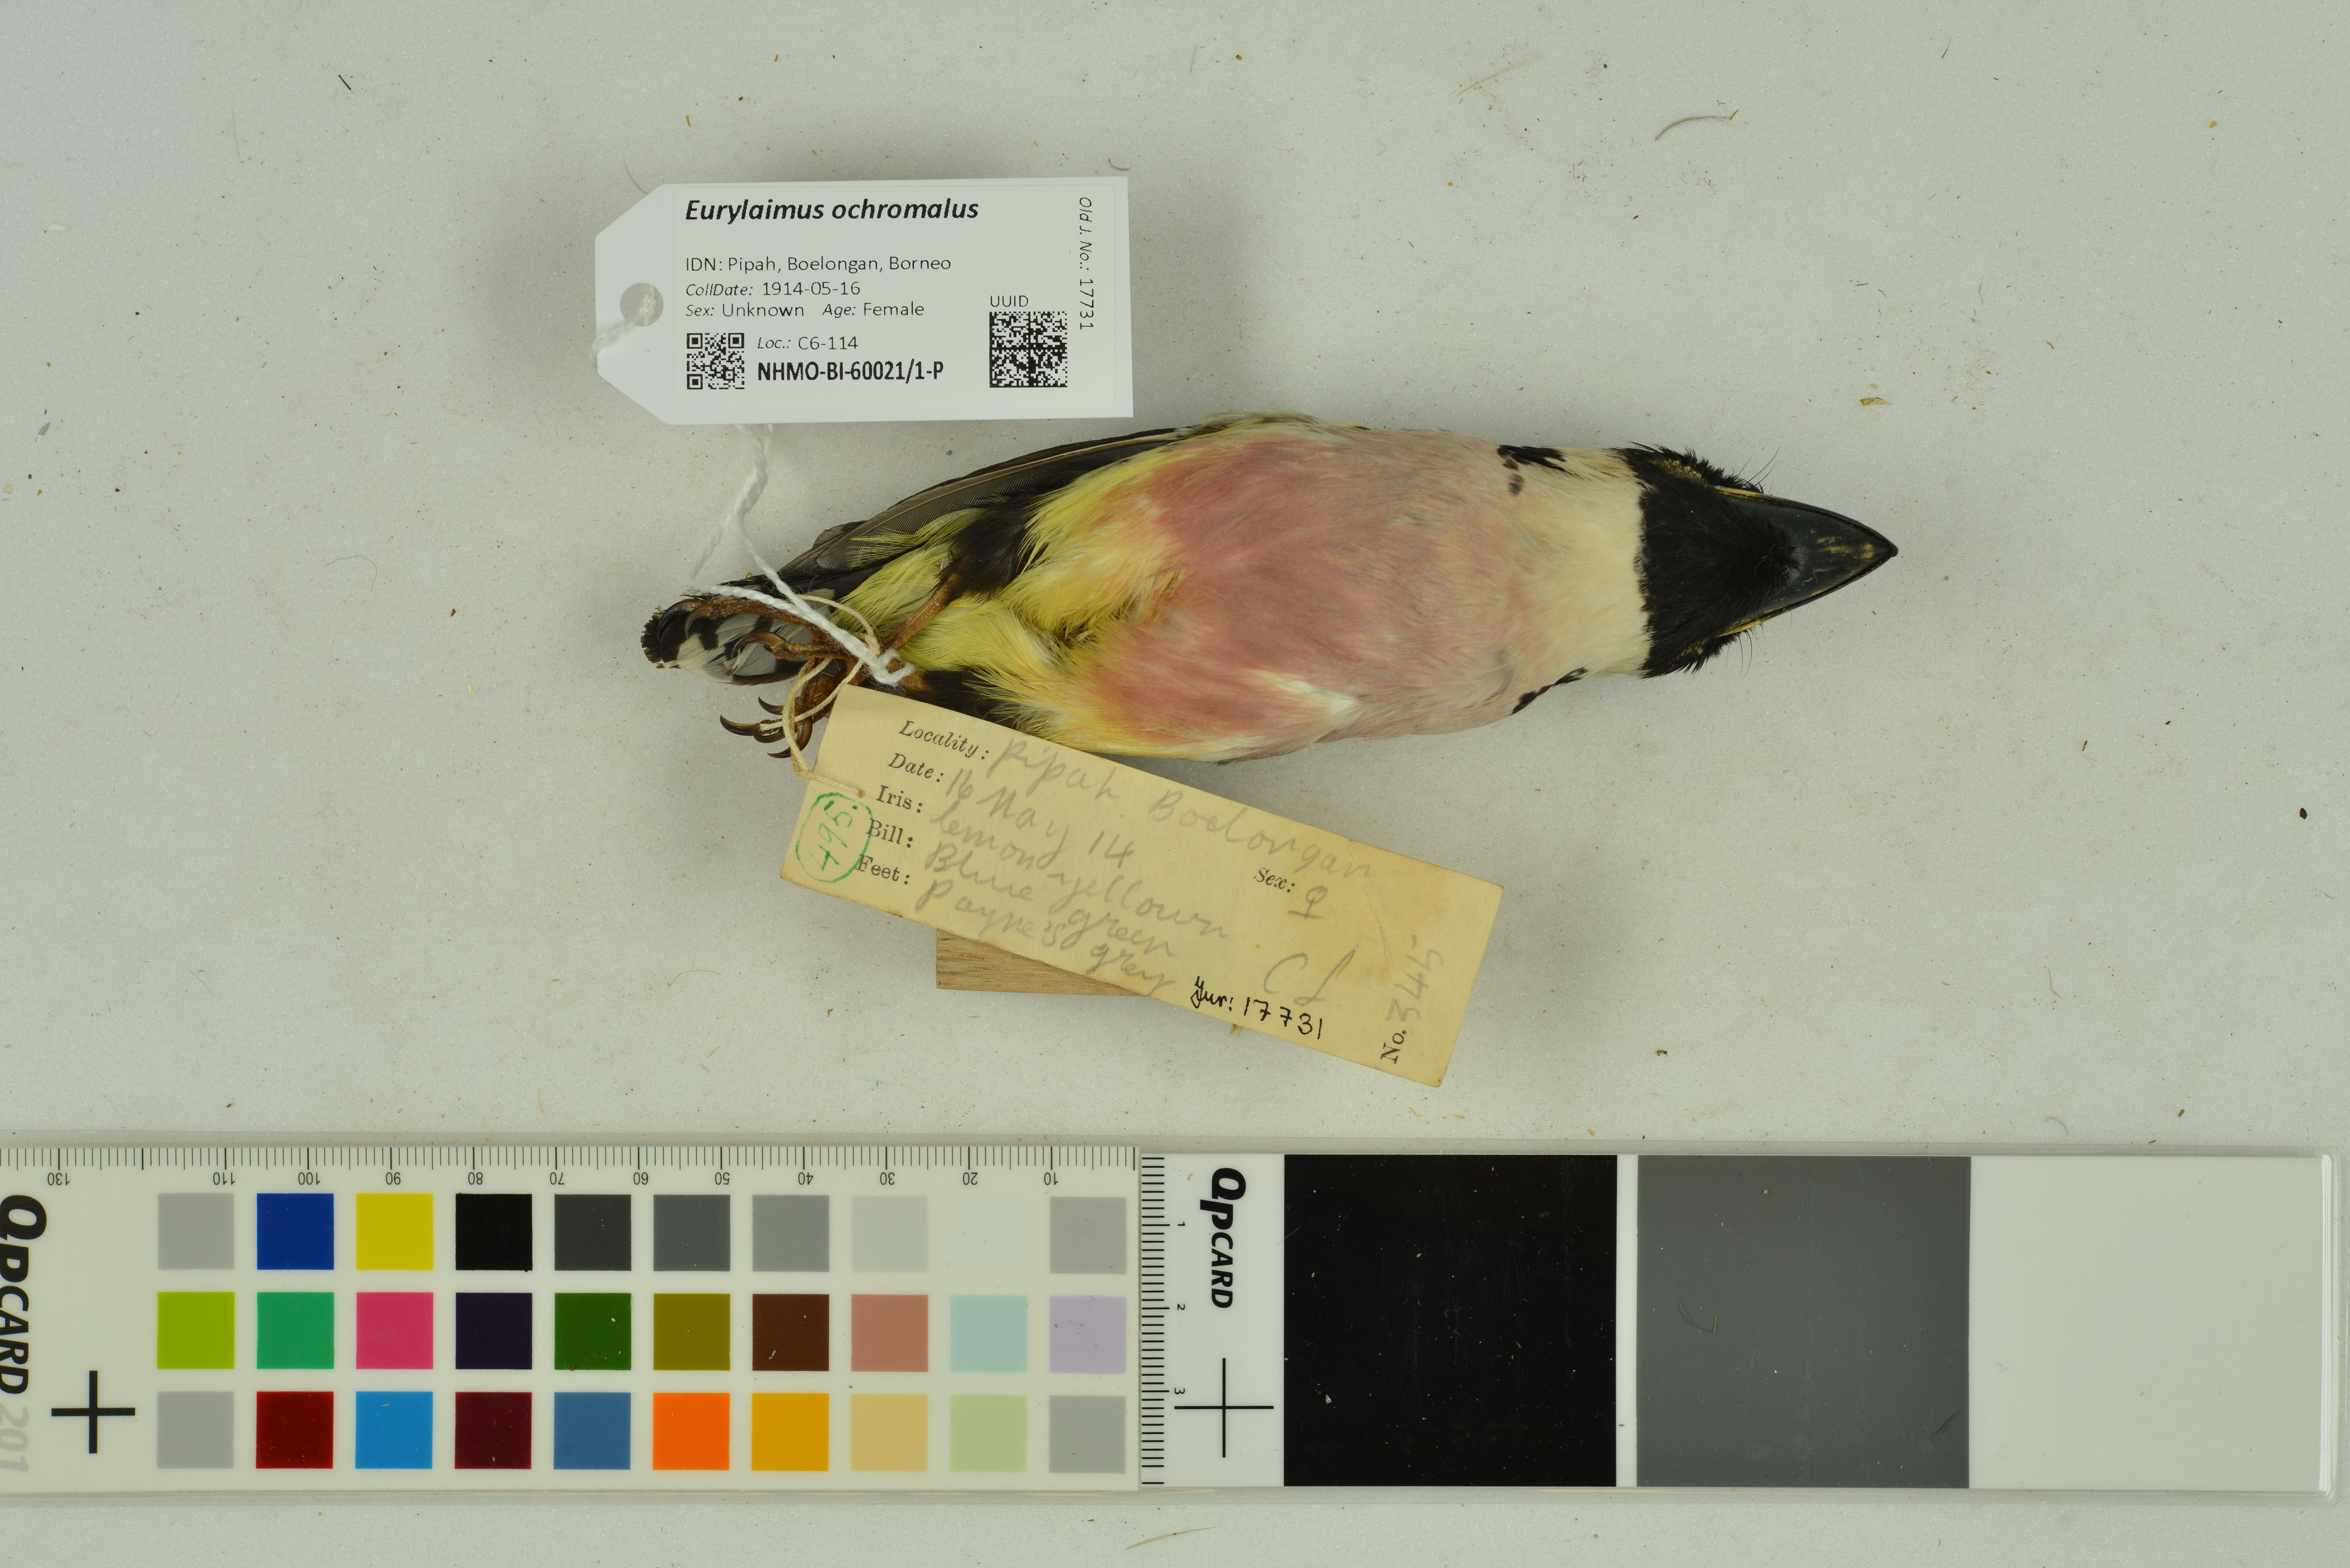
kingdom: Animalia
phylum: Chordata
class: Aves
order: Passeriformes
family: Eurylaimidae
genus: Eurylaimus
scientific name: Eurylaimus ochromalus
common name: Black-and-yellow broadbill
